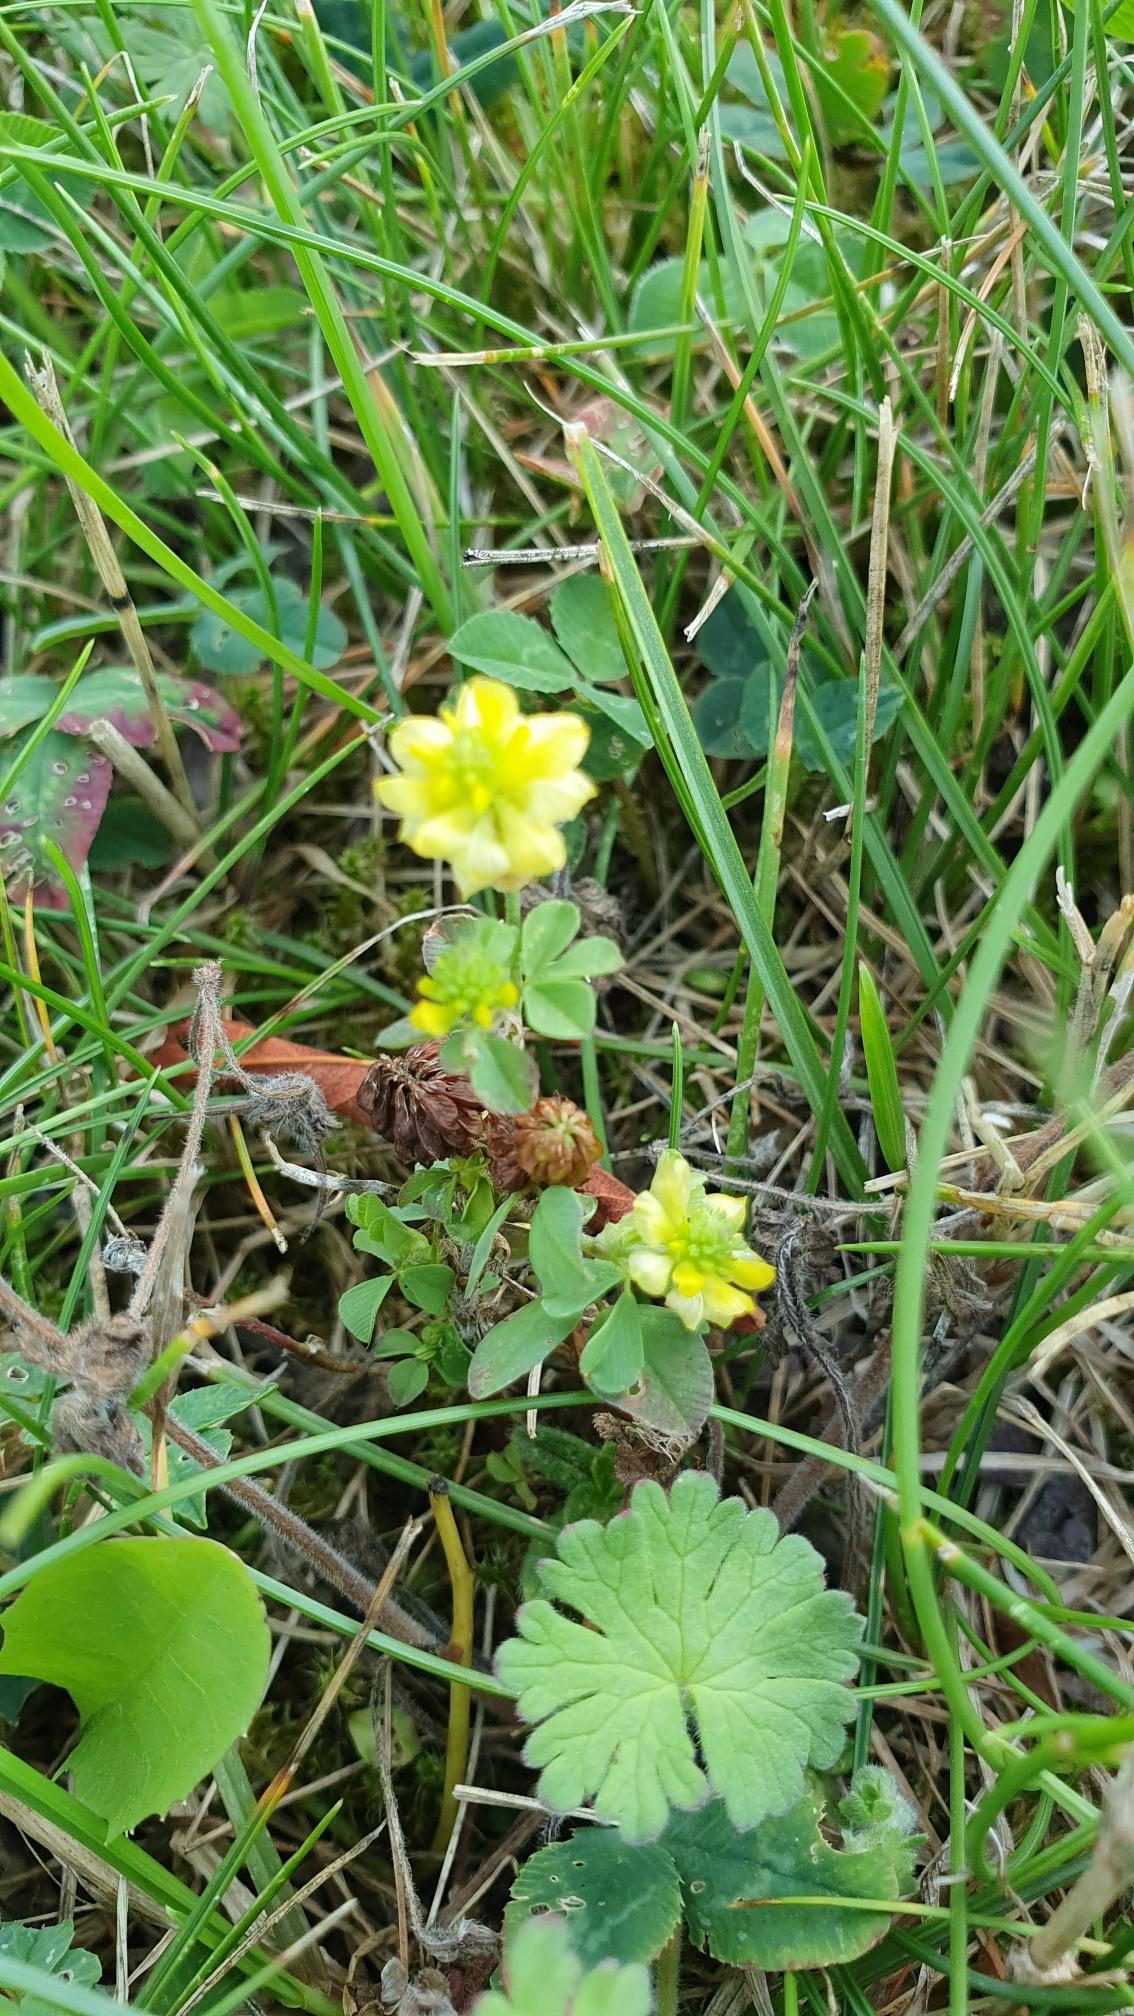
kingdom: Plantae
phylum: Tracheophyta
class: Magnoliopsida
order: Fabales
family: Fabaceae
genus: Trifolium
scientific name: Trifolium campestre
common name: Gul kløver
